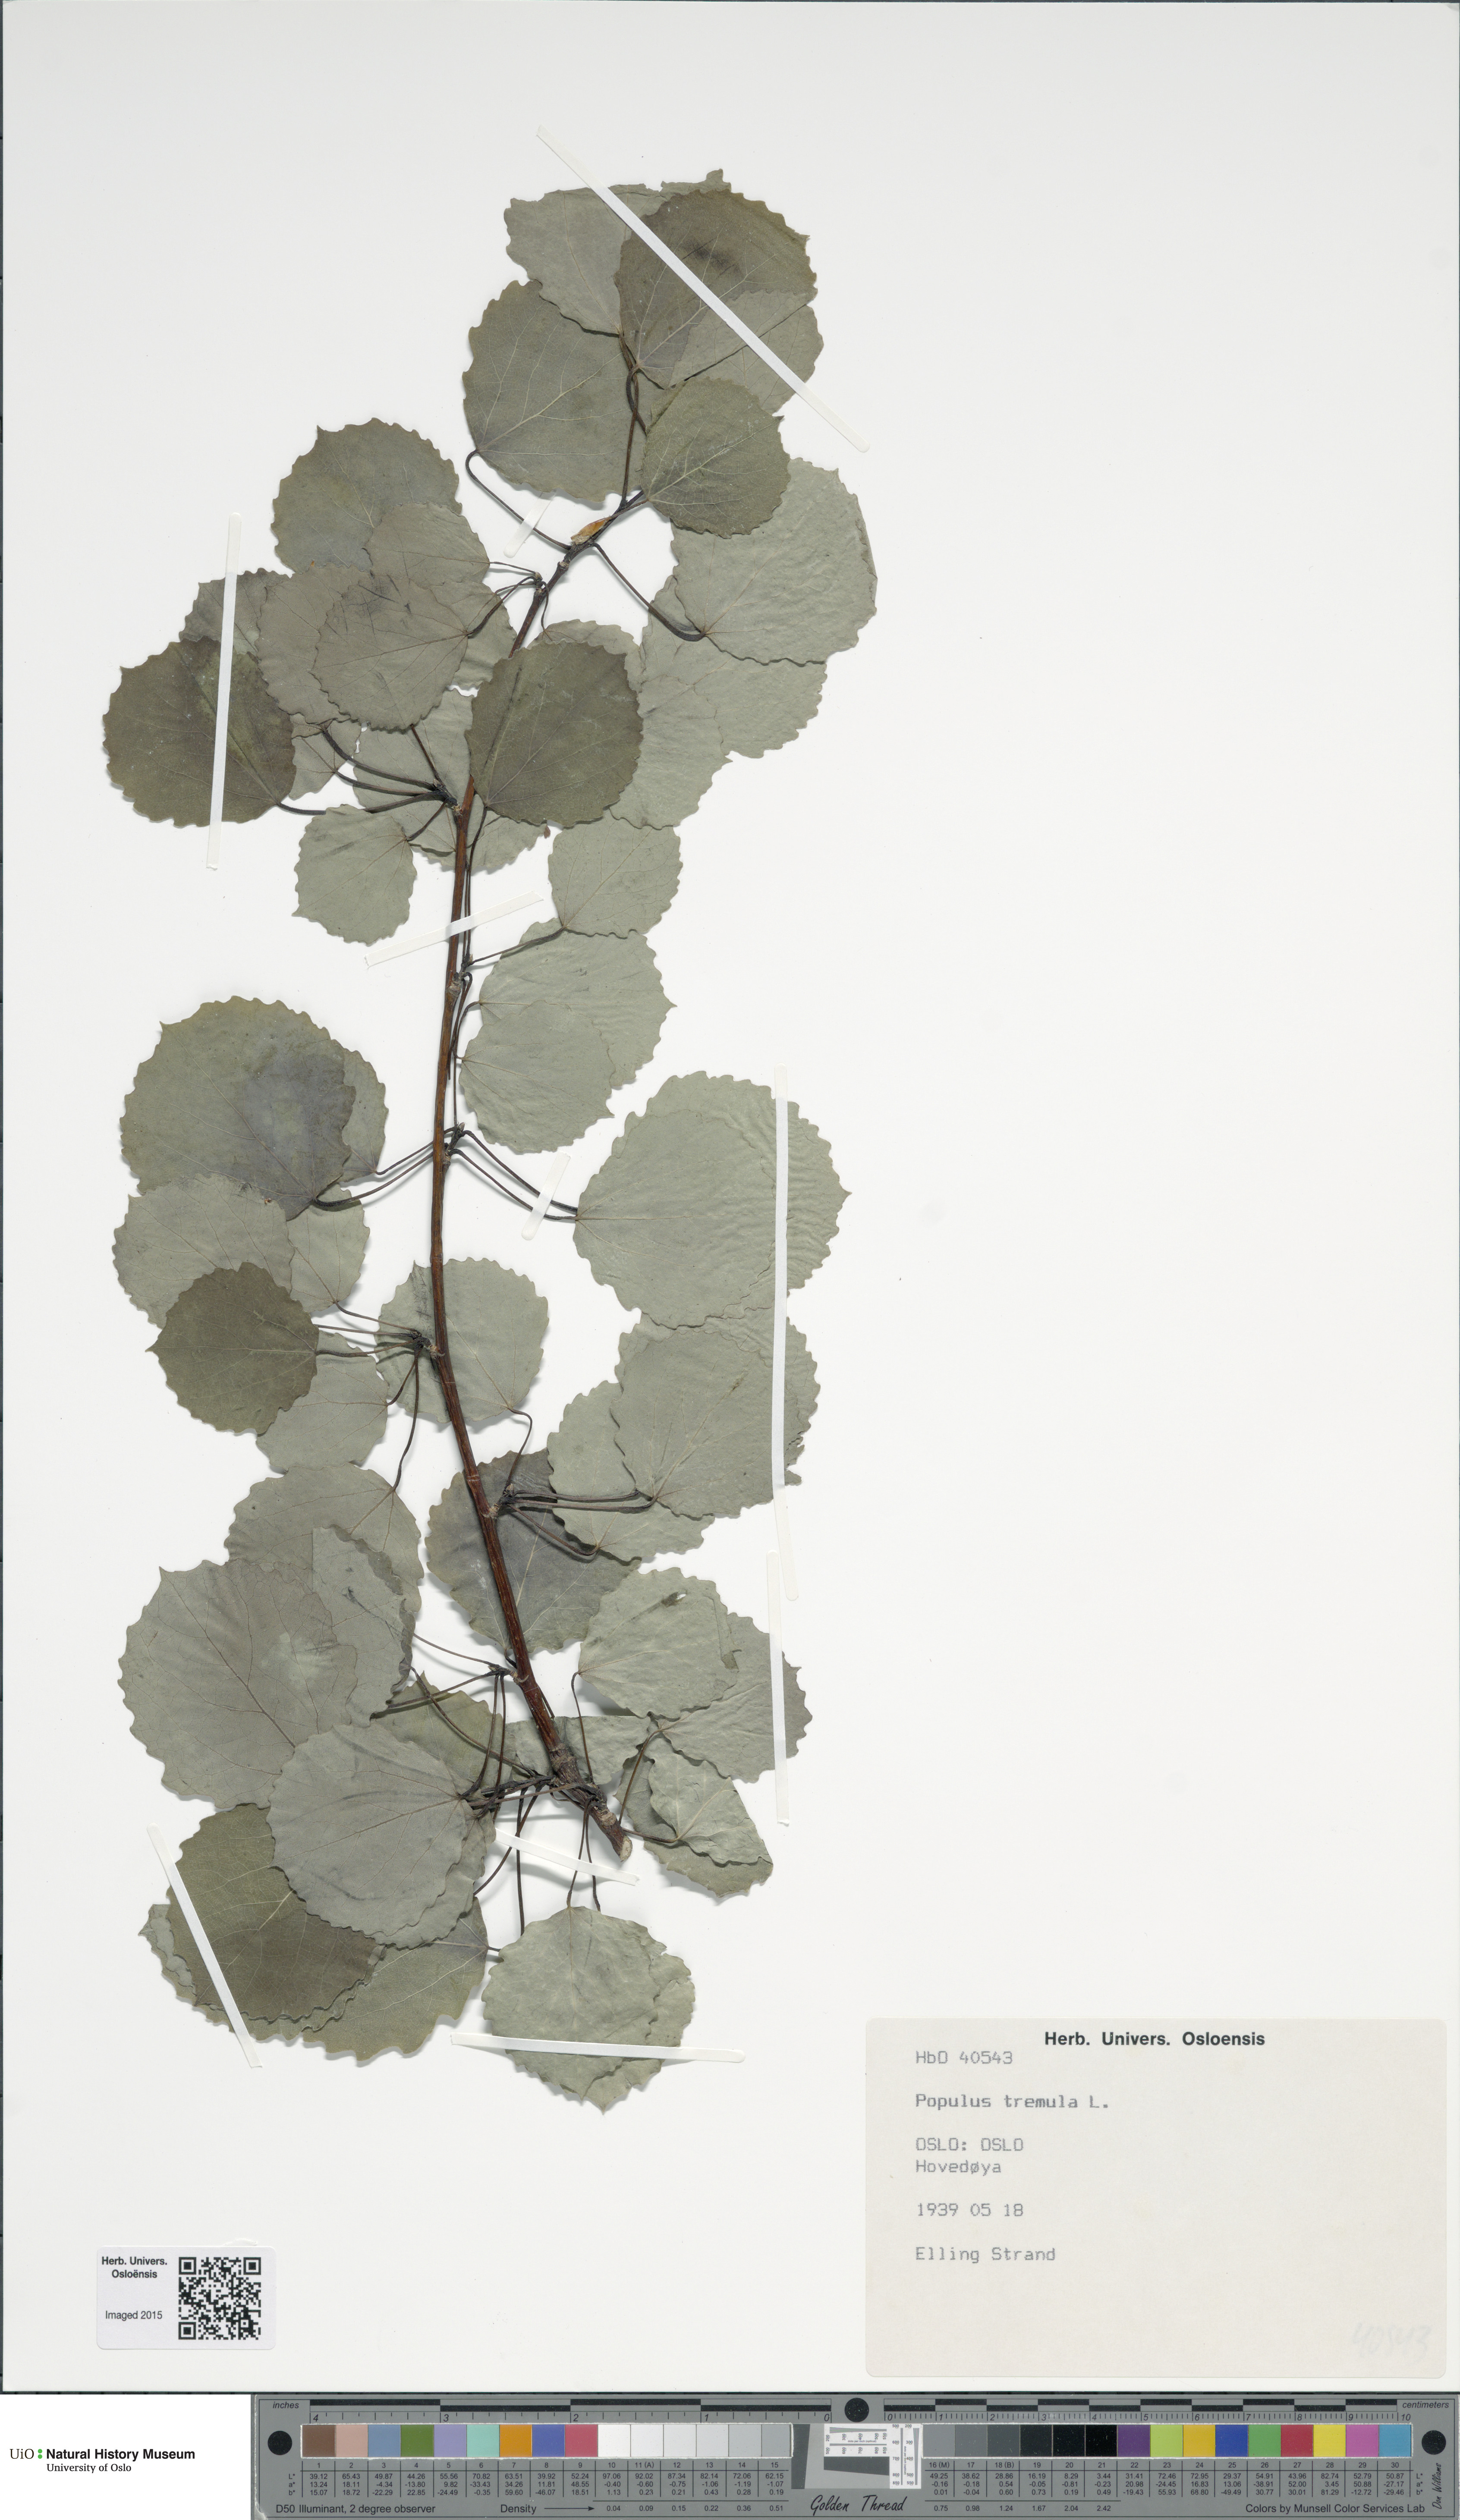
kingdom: Plantae
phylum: Tracheophyta
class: Magnoliopsida
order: Malpighiales
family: Salicaceae
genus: Populus
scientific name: Populus tremula
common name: European aspen
